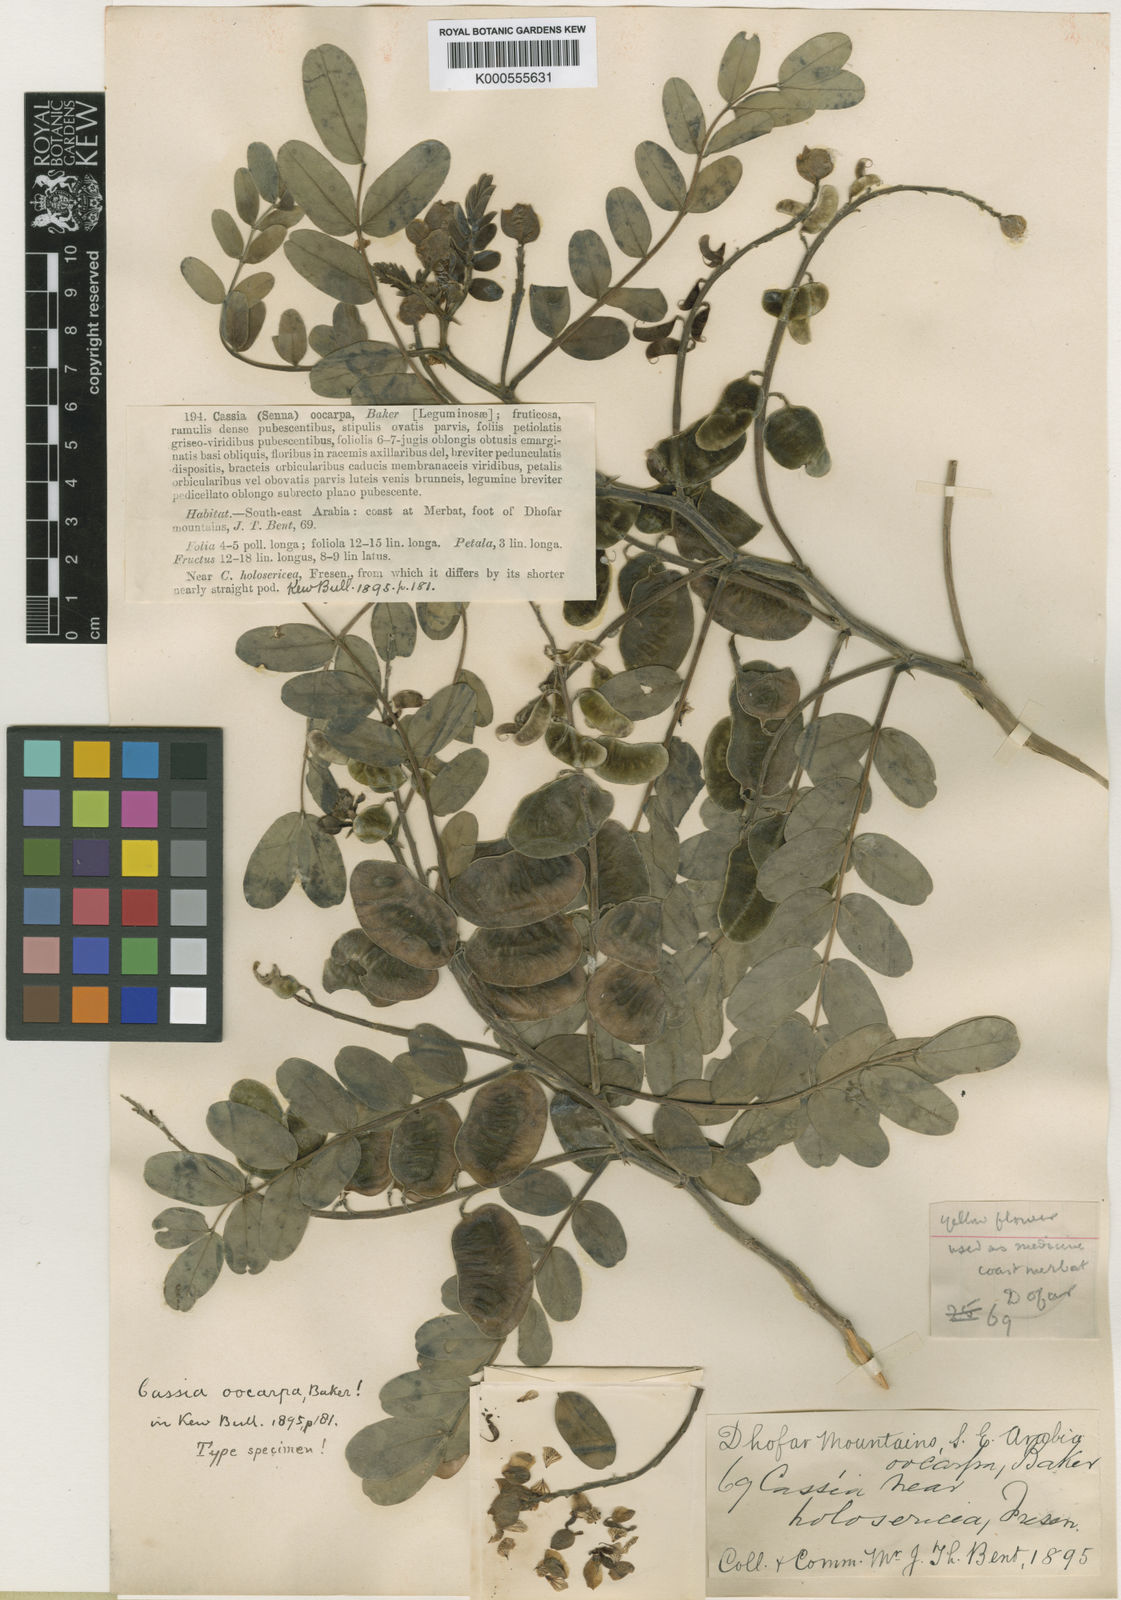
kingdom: Plantae
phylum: Tracheophyta
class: Magnoliopsida
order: Fabales
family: Fabaceae
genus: Senna
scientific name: Senna holosericea
